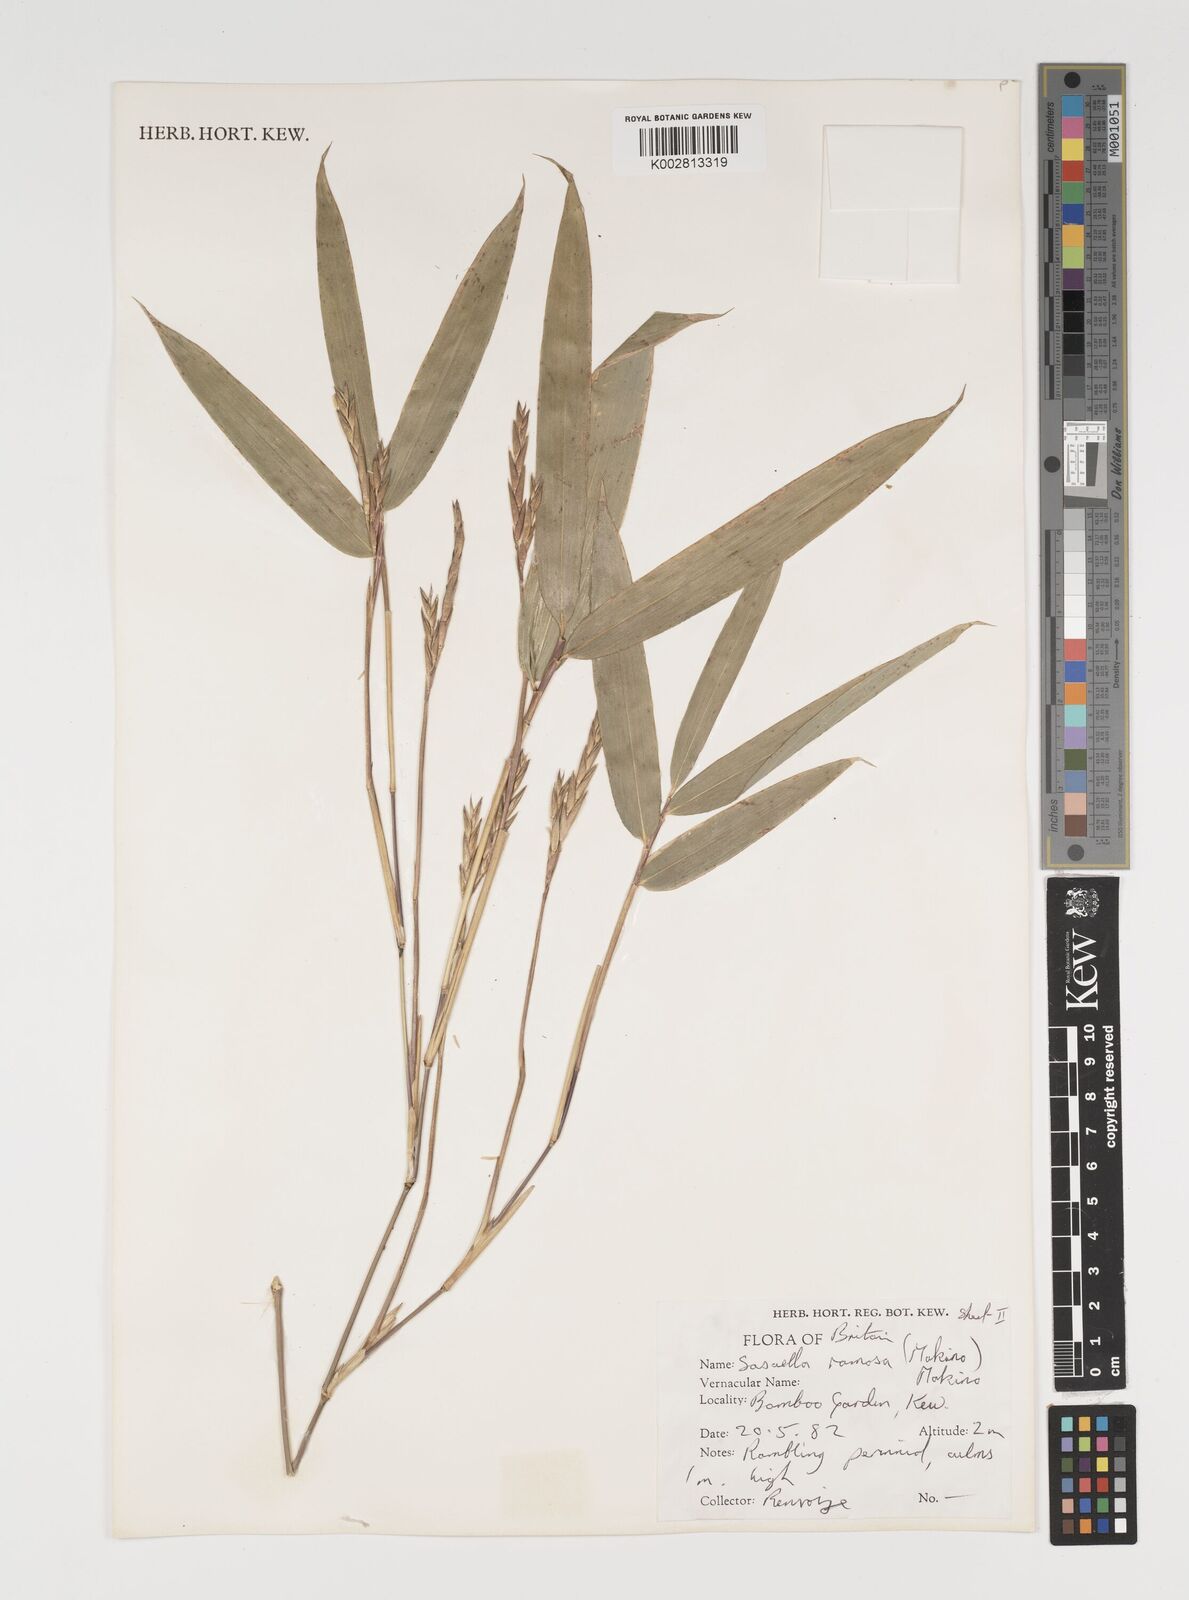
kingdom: Plantae
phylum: Tracheophyta
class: Liliopsida
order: Poales
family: Poaceae
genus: Sasaella
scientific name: Sasaella ramosa
